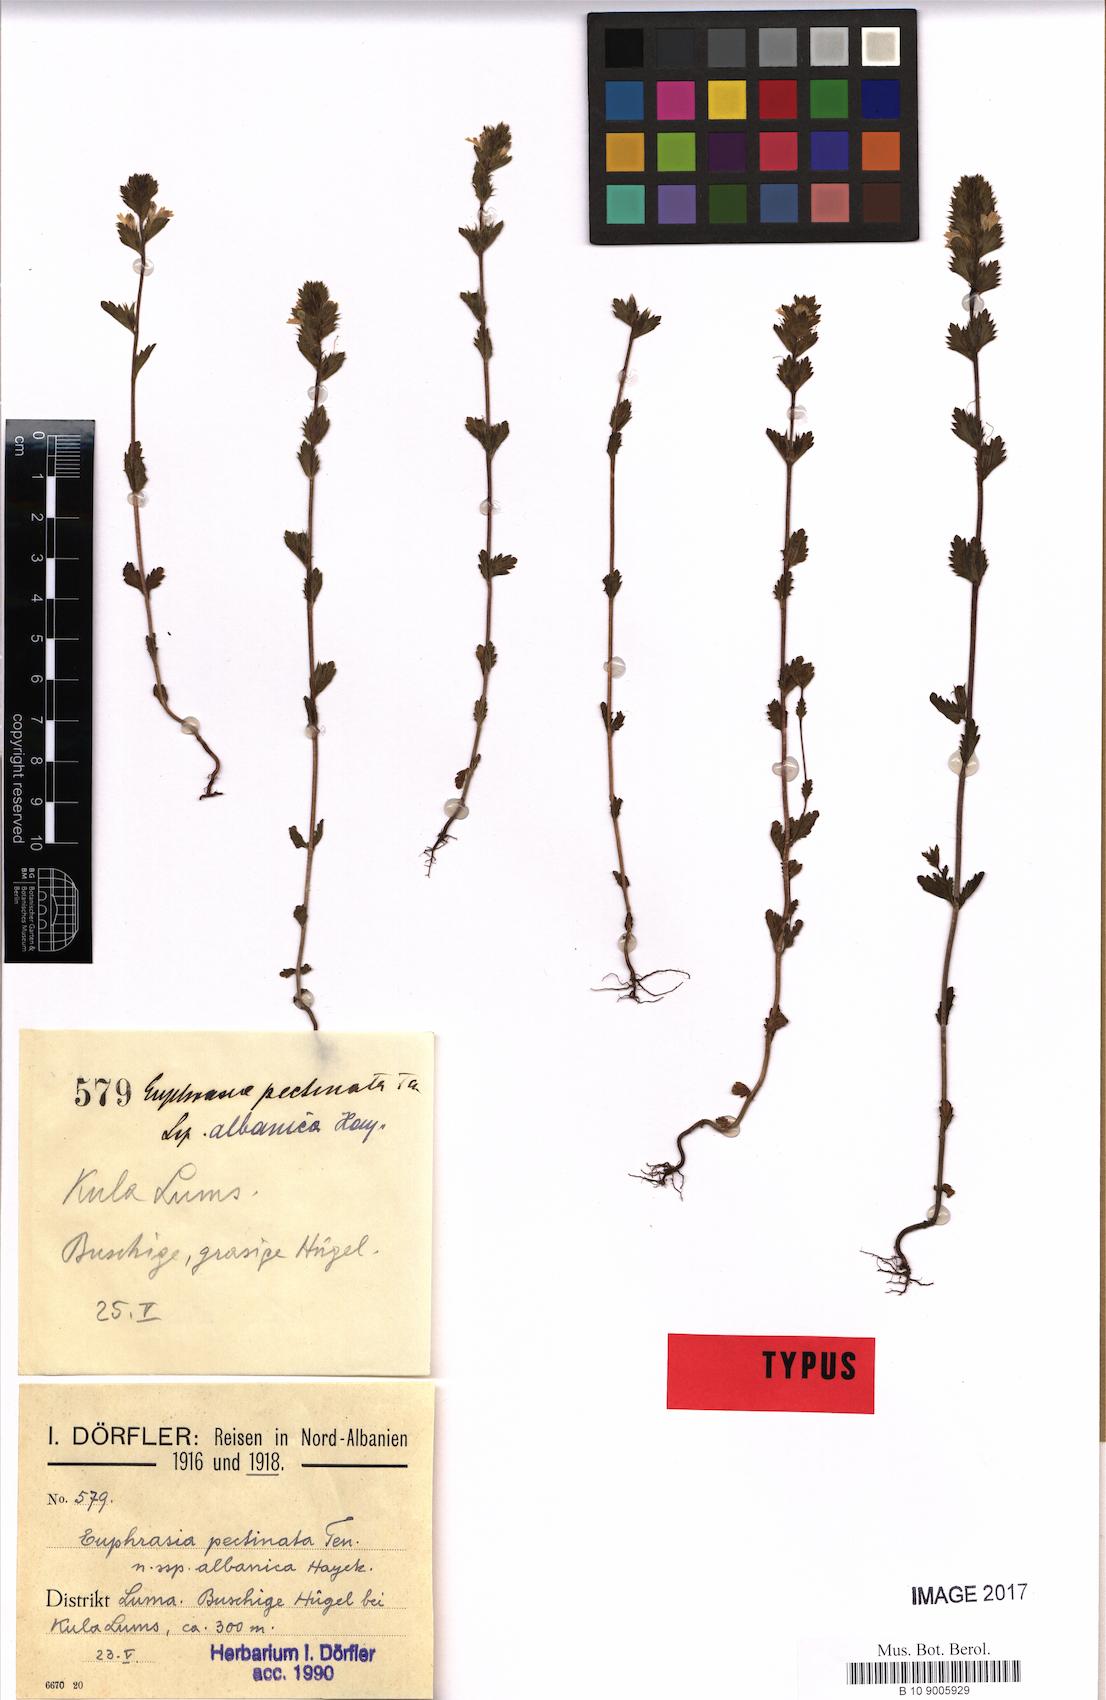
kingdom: Plantae
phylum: Tracheophyta
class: Magnoliopsida
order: Lamiales
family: Orobanchaceae
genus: Euphrasia
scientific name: Euphrasia pectinata
